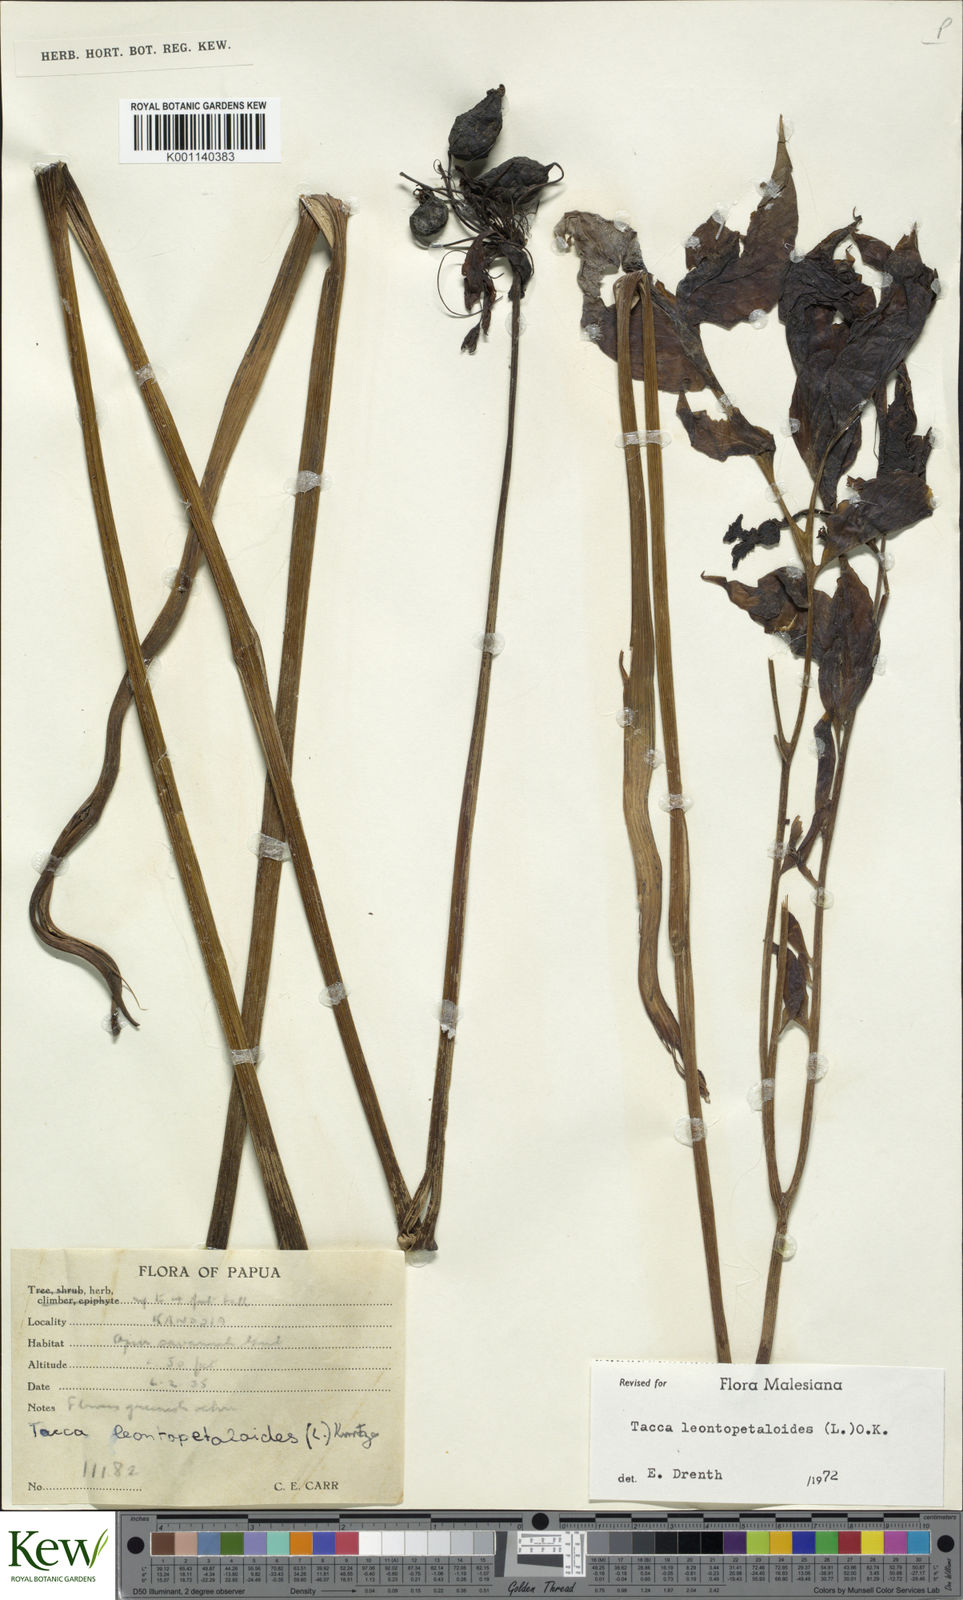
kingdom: Plantae
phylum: Tracheophyta
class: Liliopsida
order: Dioscoreales
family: Dioscoreaceae
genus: Tacca
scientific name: Tacca leontopetaloides
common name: Arrowroot
